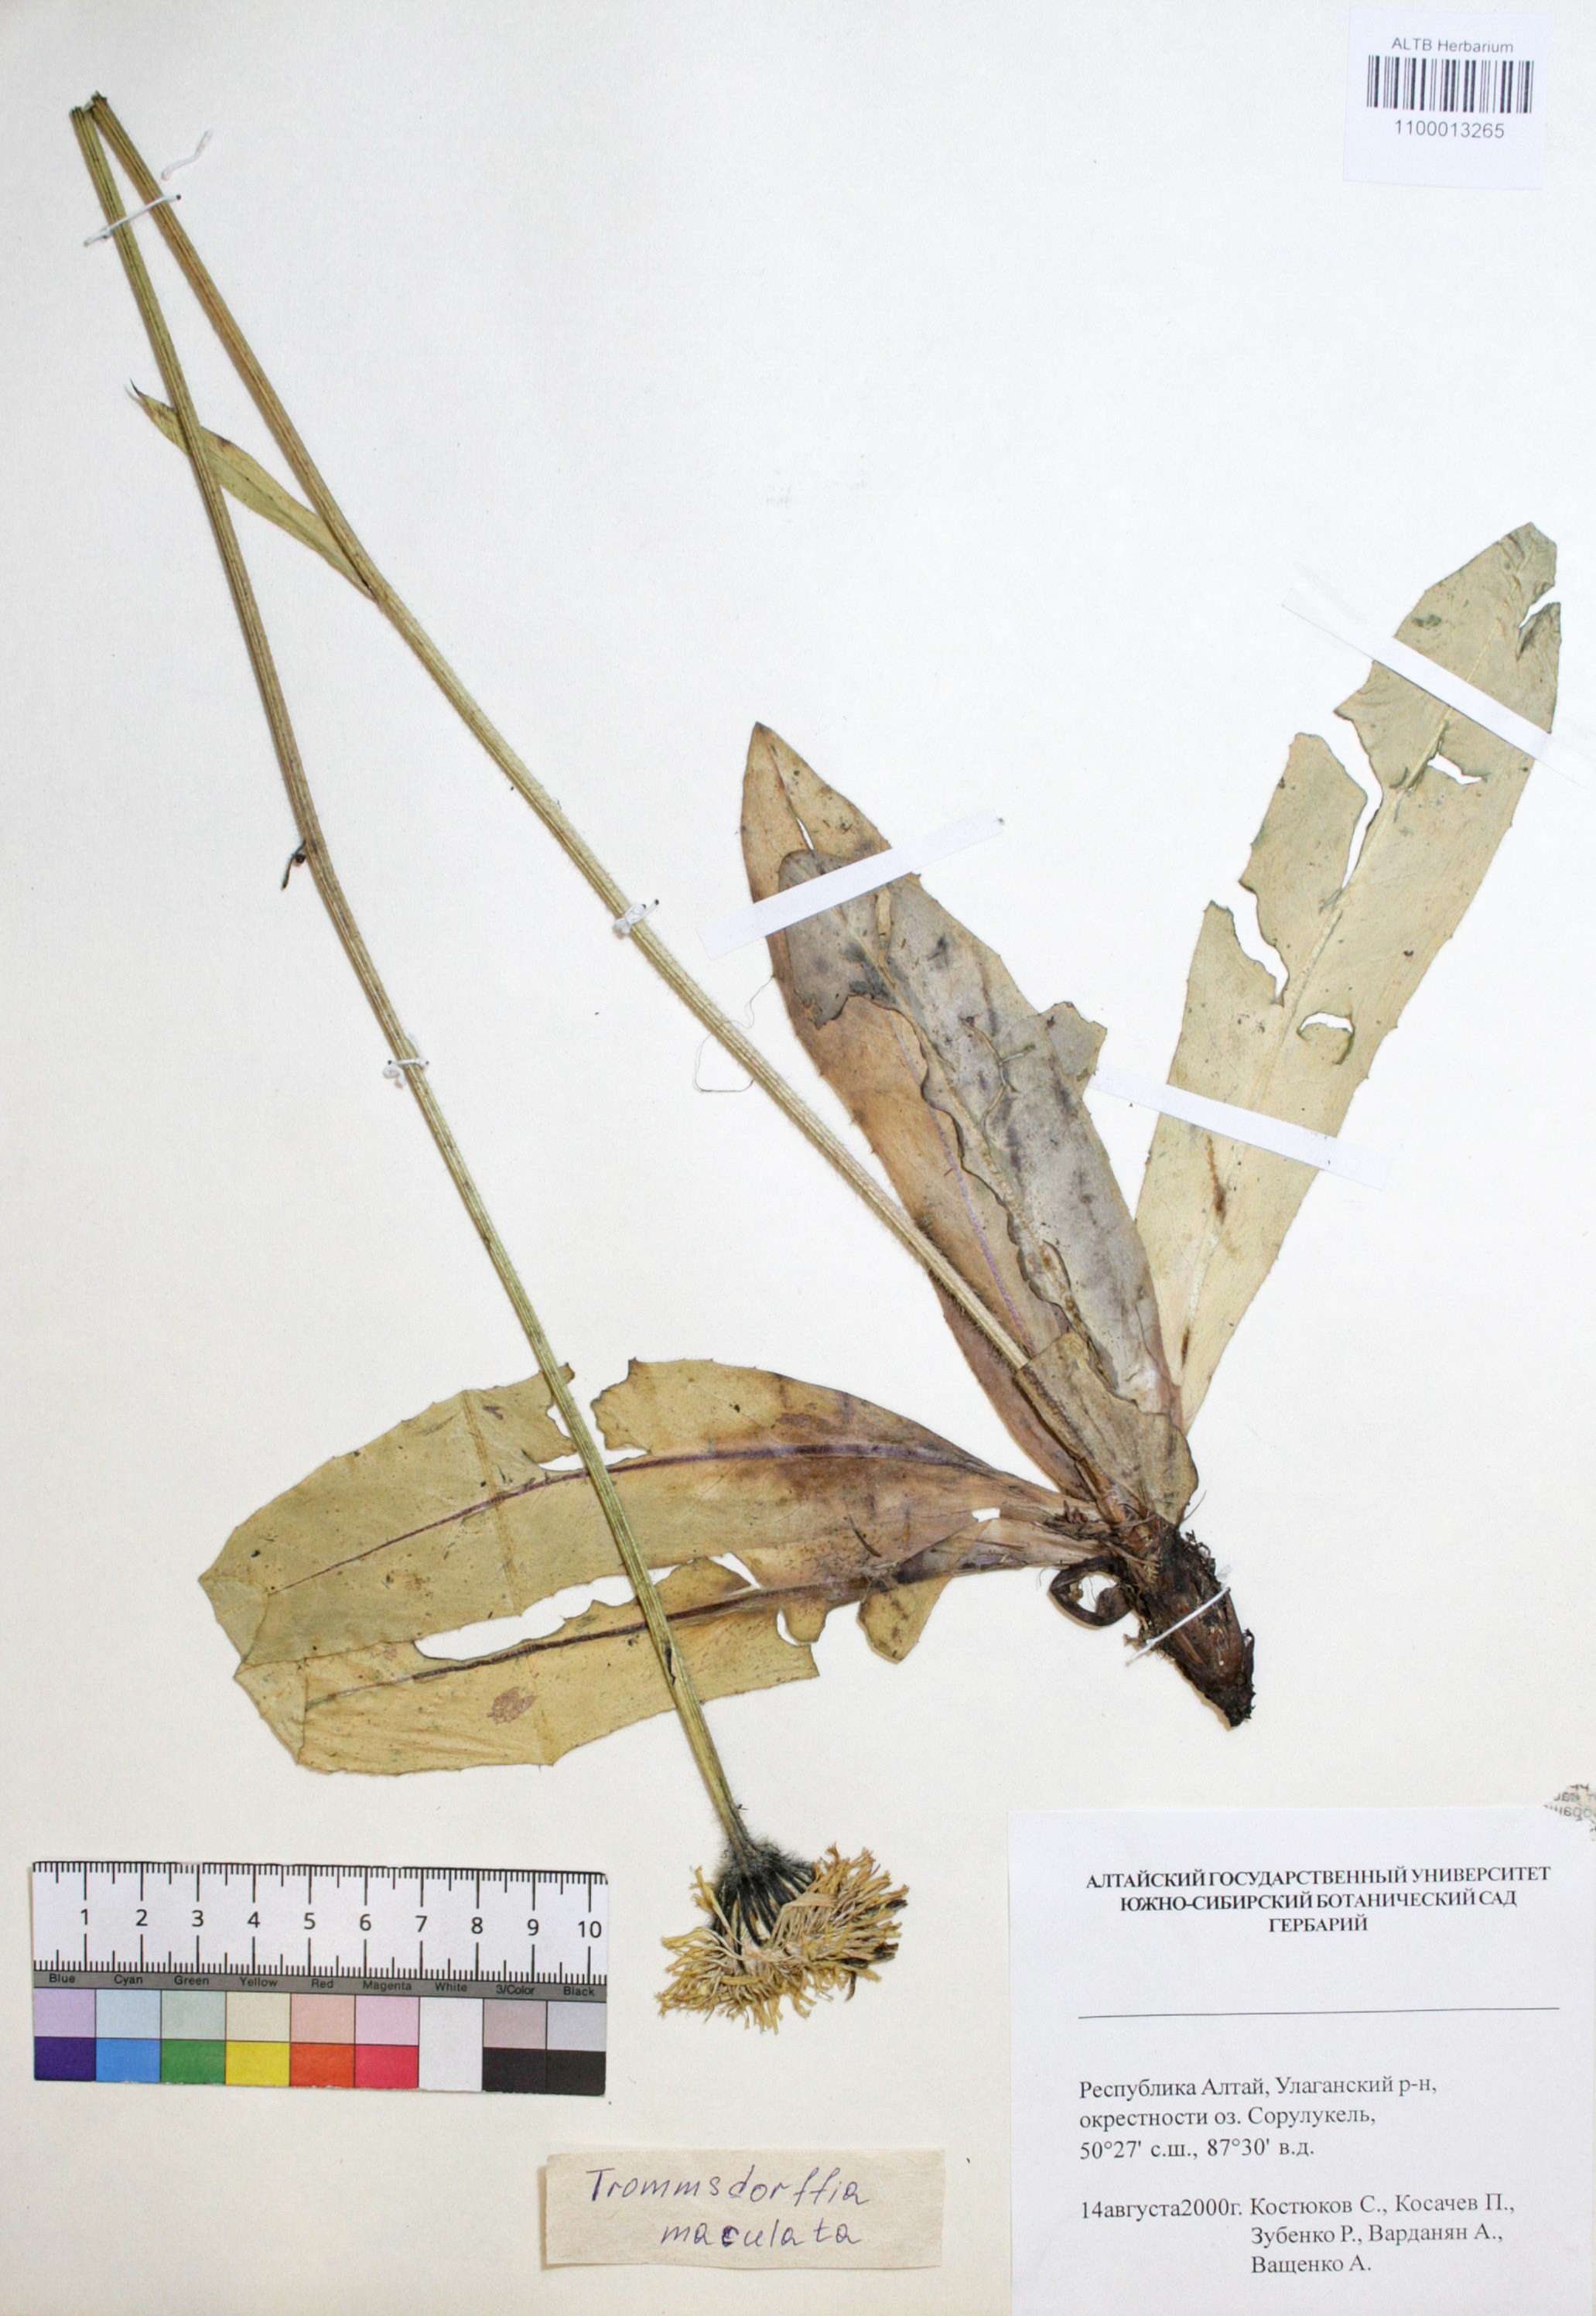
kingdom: Plantae
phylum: Tracheophyta
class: Magnoliopsida
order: Asterales
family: Asteraceae
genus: Trommsdorffia
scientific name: Trommsdorffia maculata
